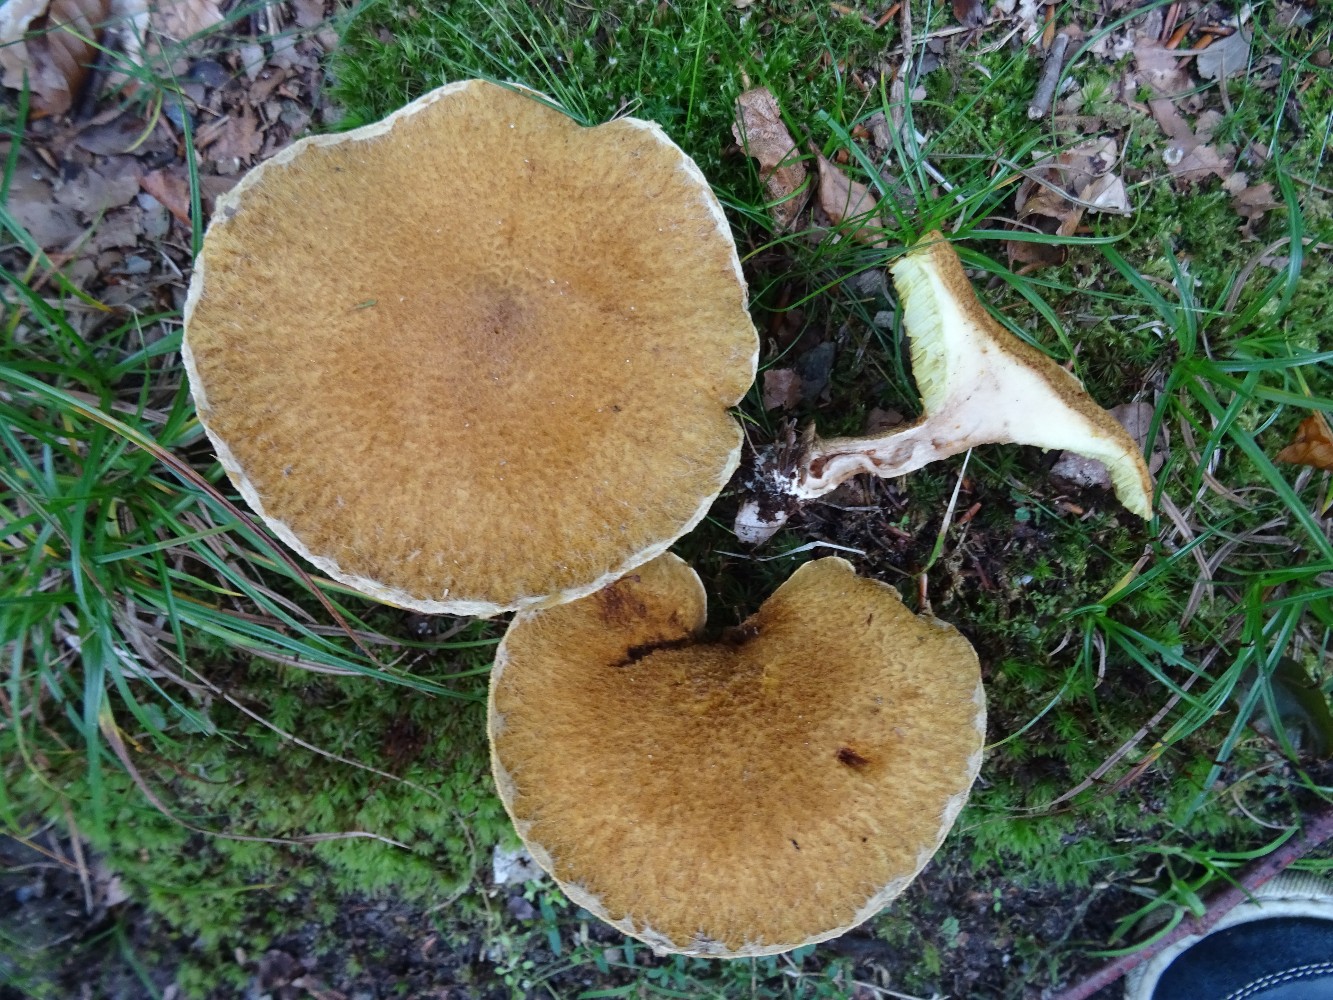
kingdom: Fungi
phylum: Basidiomycota
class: Agaricomycetes
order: Boletales
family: Suillaceae
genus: Suillus
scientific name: Suillus cavipes
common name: hulstokket slimrørhat
